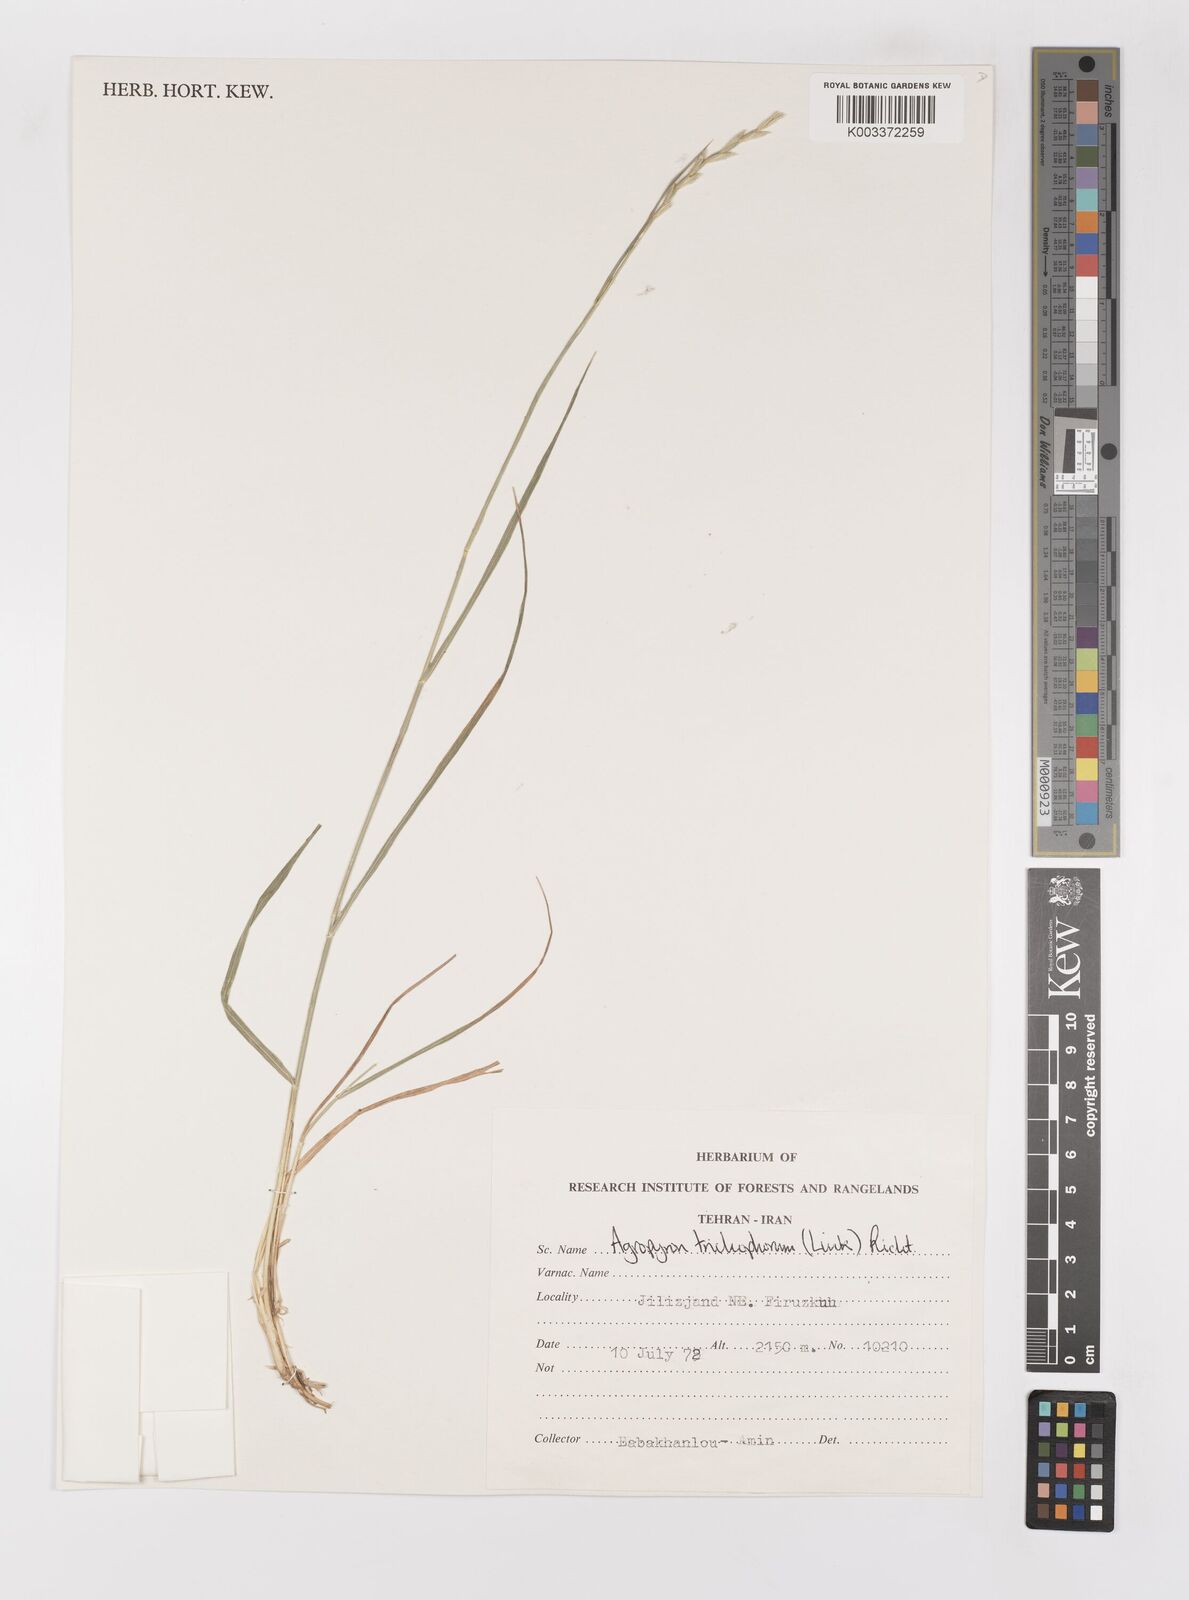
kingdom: Plantae
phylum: Tracheophyta
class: Liliopsida
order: Poales
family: Poaceae
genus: Thinopyrum
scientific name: Thinopyrum intermedium
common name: Intermediate wheatgrass
